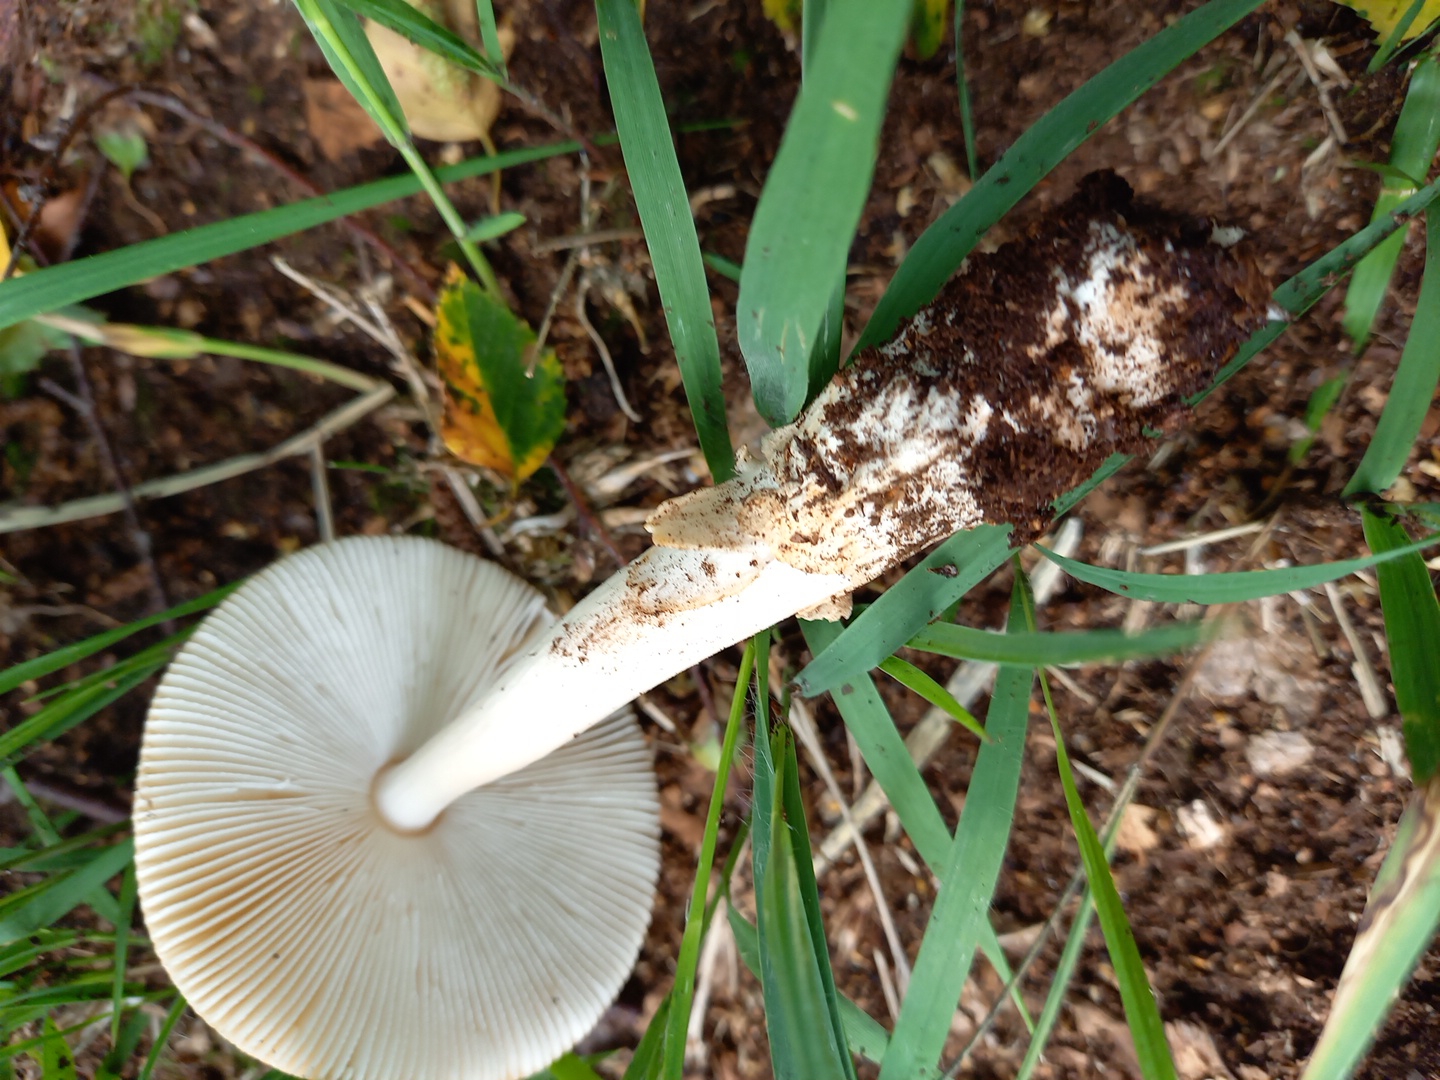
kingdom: Fungi
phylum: Basidiomycota
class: Agaricomycetes
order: Agaricales
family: Amanitaceae
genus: Amanita
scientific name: Amanita fulva
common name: brun kam-fluesvamp
